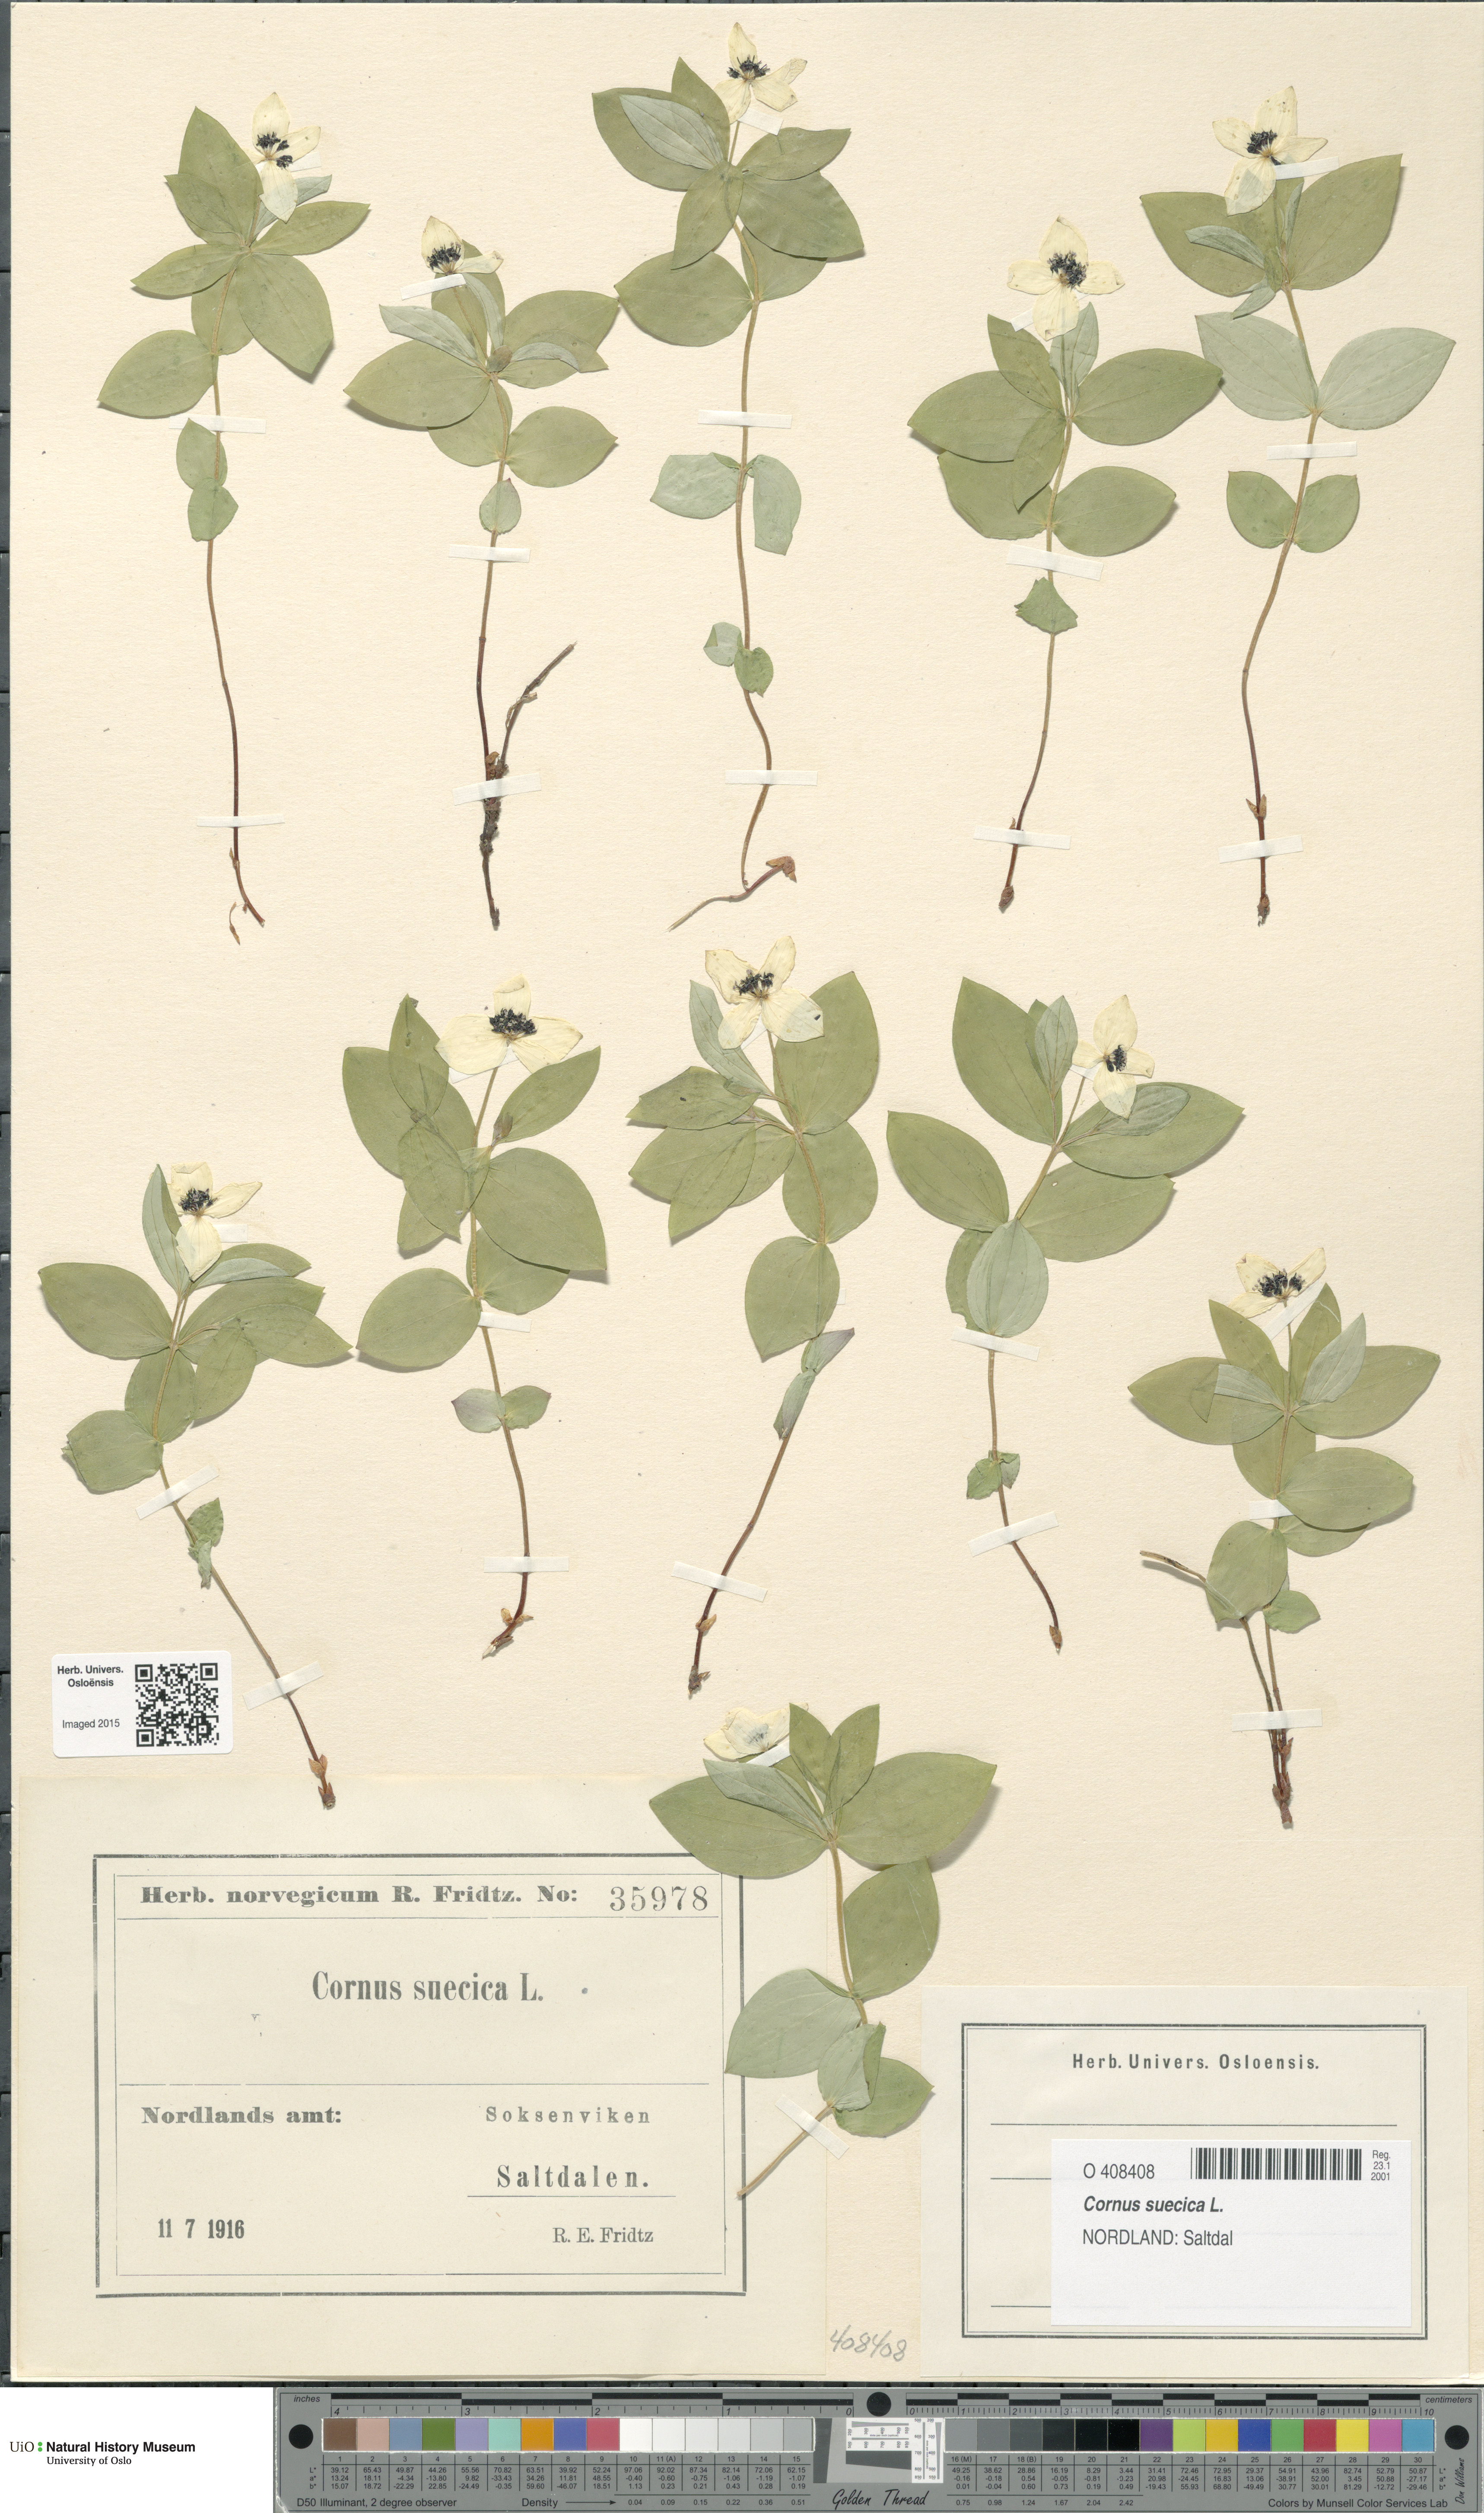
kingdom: Plantae
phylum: Tracheophyta
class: Magnoliopsida
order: Cornales
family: Cornaceae
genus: Cornus
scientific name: Cornus suecica
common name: Dwarf cornel
